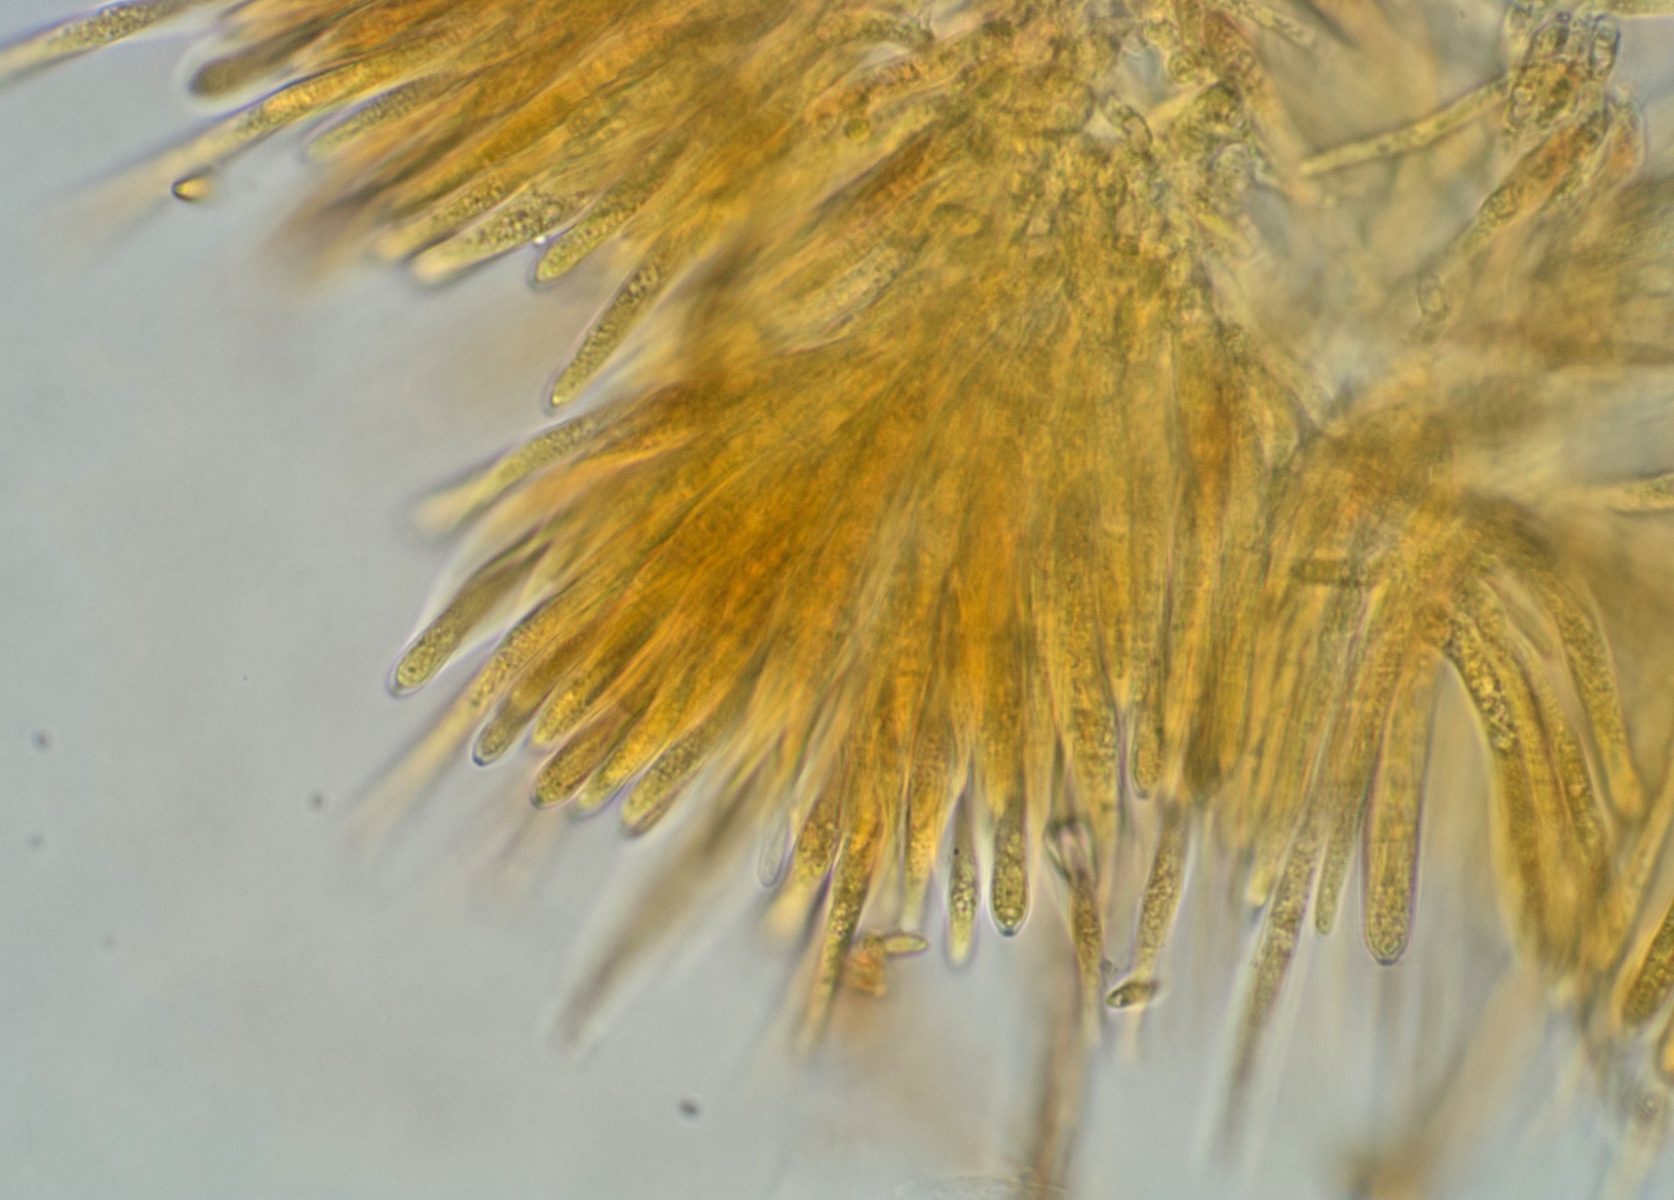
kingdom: Fungi
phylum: Ascomycota
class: Leotiomycetes
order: Helotiales
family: Lachnaceae
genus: Brunnipila
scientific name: Brunnipila palearum
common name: brunhåret frynseskive
